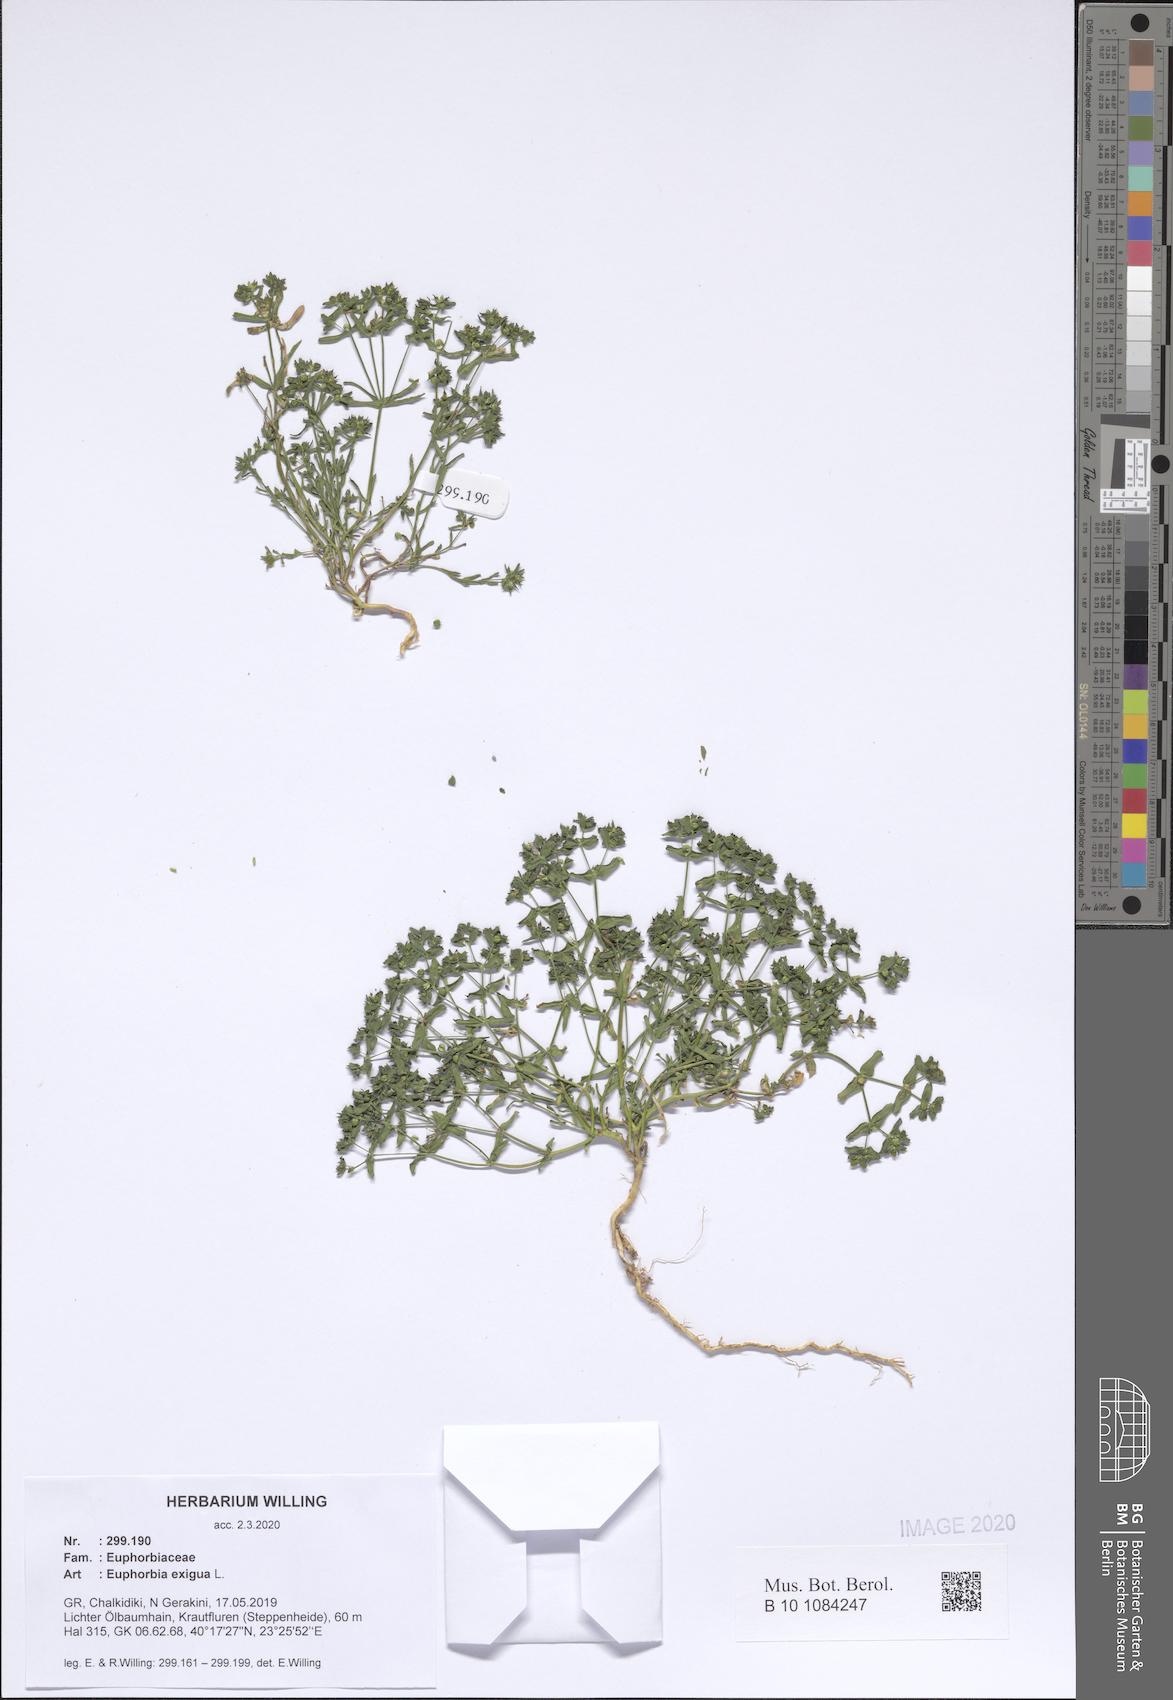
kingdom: Plantae
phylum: Tracheophyta
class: Magnoliopsida
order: Malpighiales
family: Euphorbiaceae
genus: Euphorbia
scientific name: Euphorbia exigua
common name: Dwarf spurge
